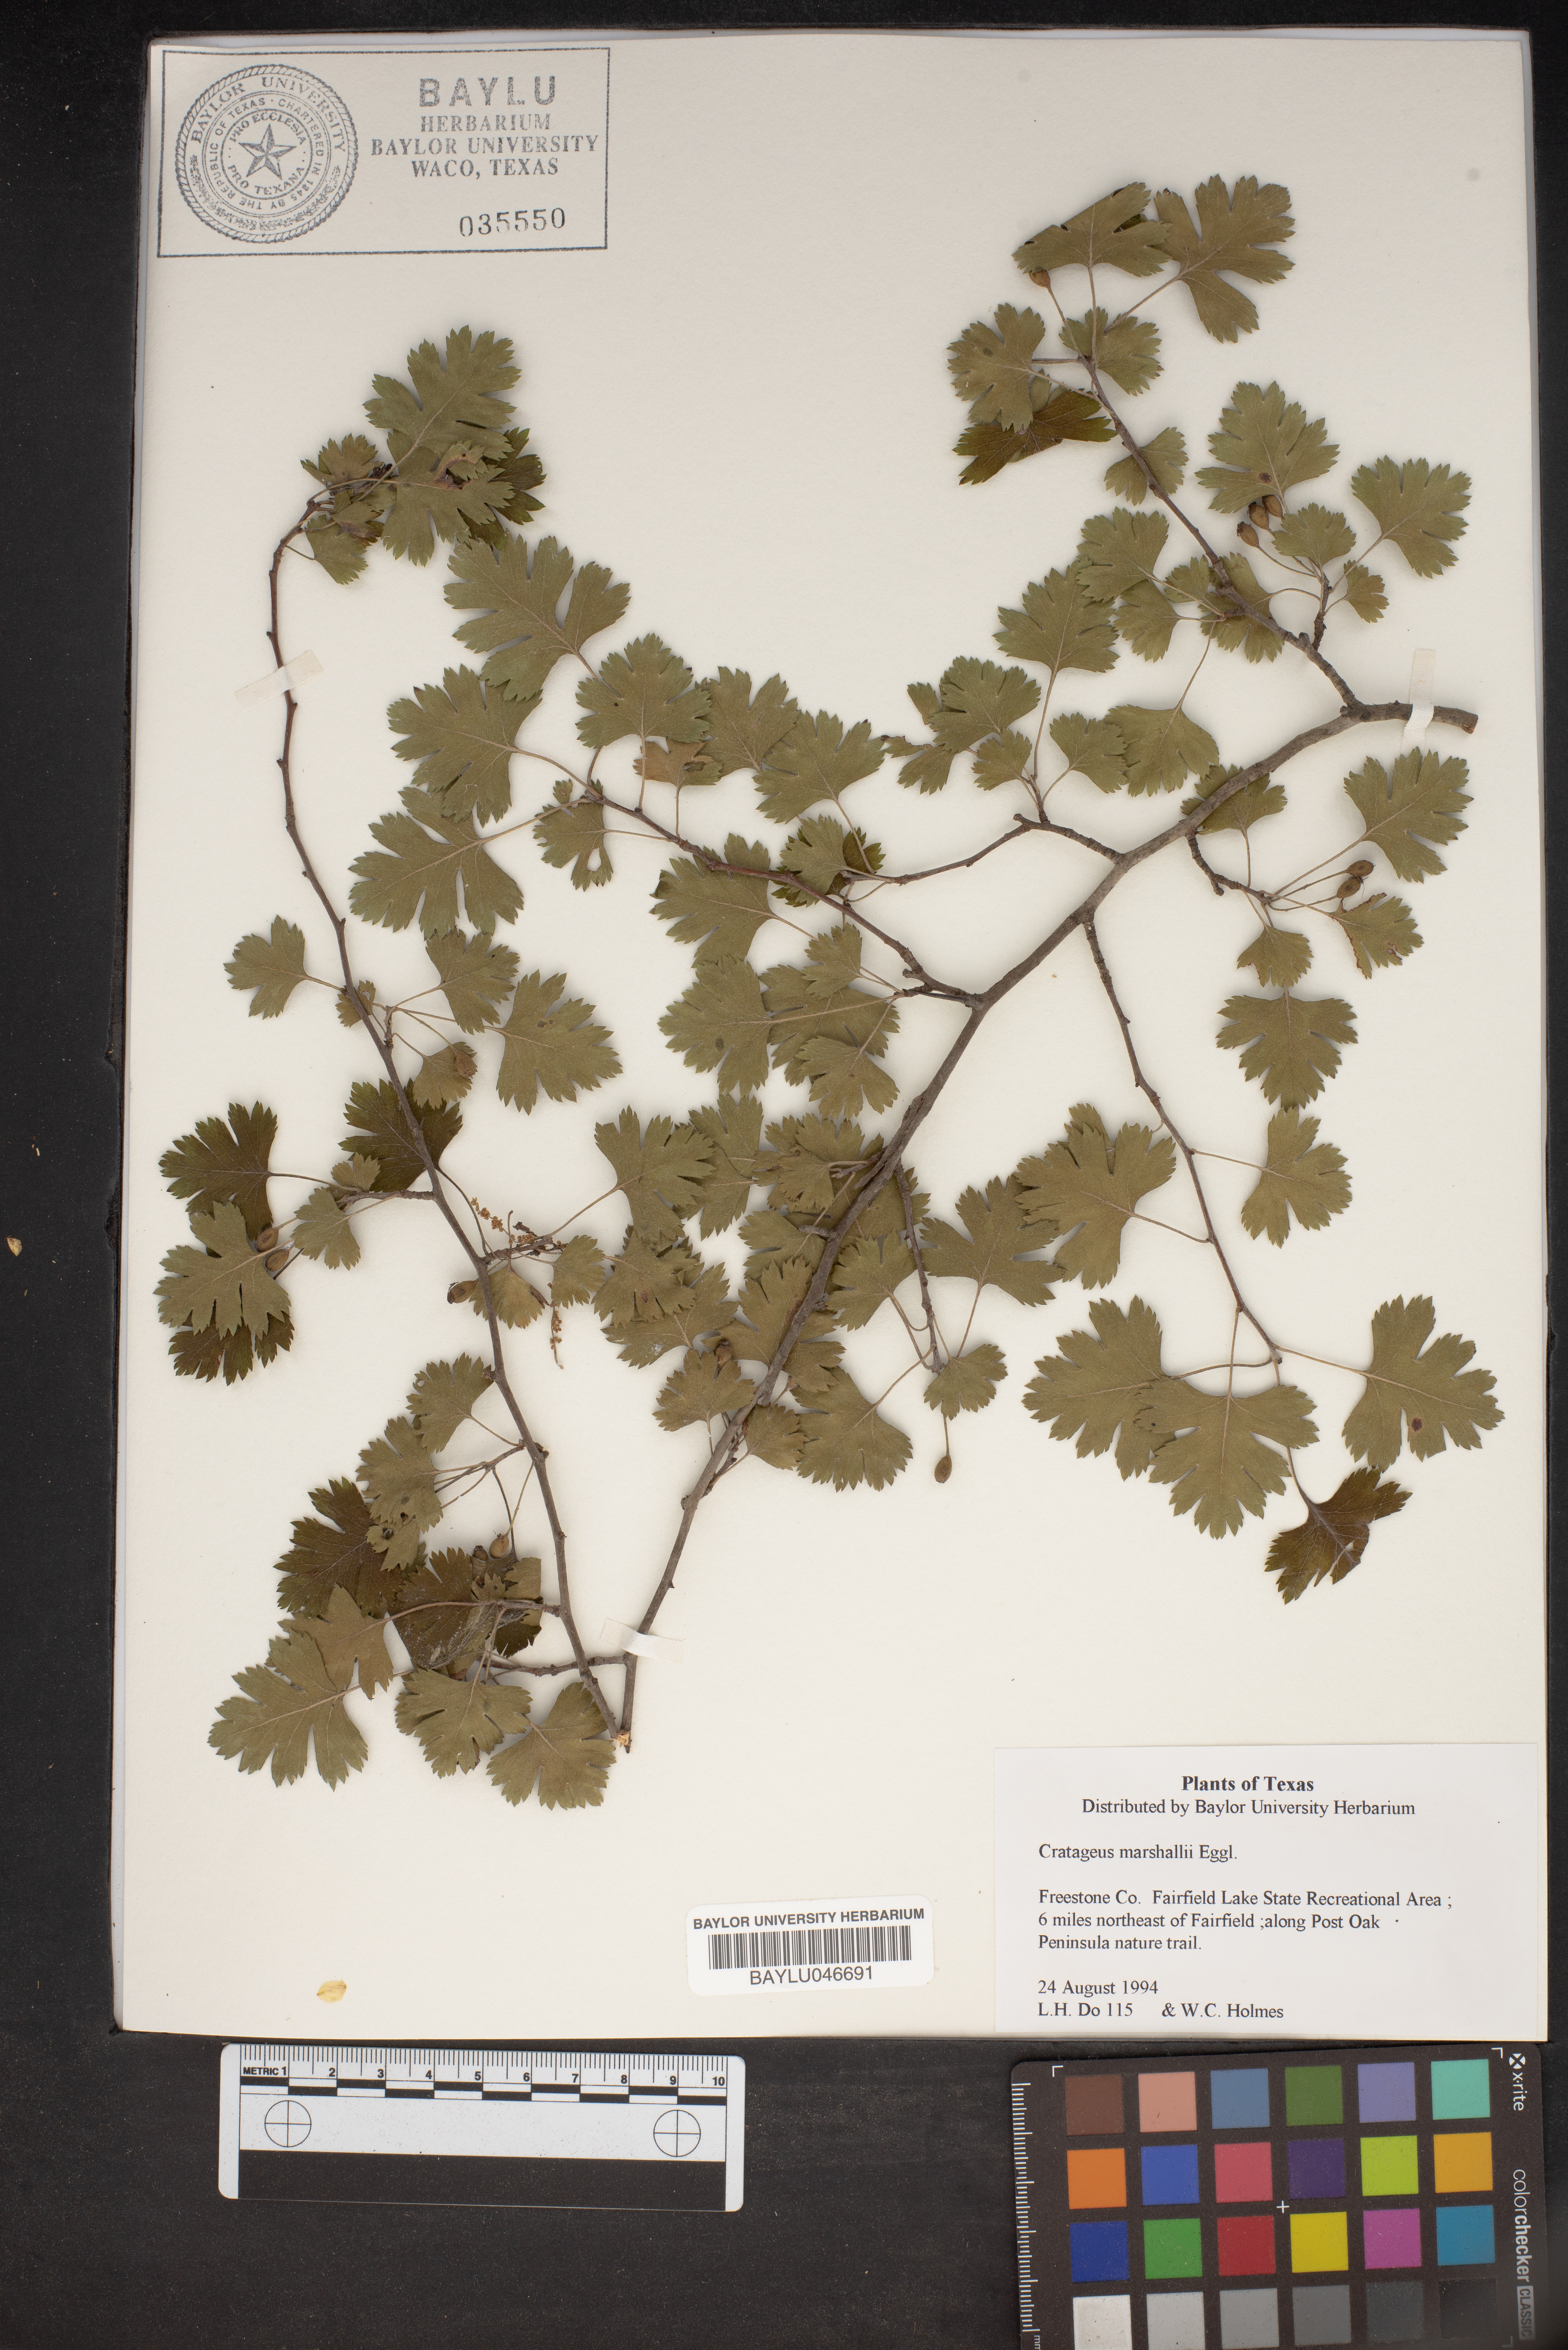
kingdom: Plantae
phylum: Tracheophyta
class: Magnoliopsida
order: Rosales
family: Rosaceae
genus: Crataegus
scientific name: Crataegus marshallii
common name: Parsley-hawthorn
